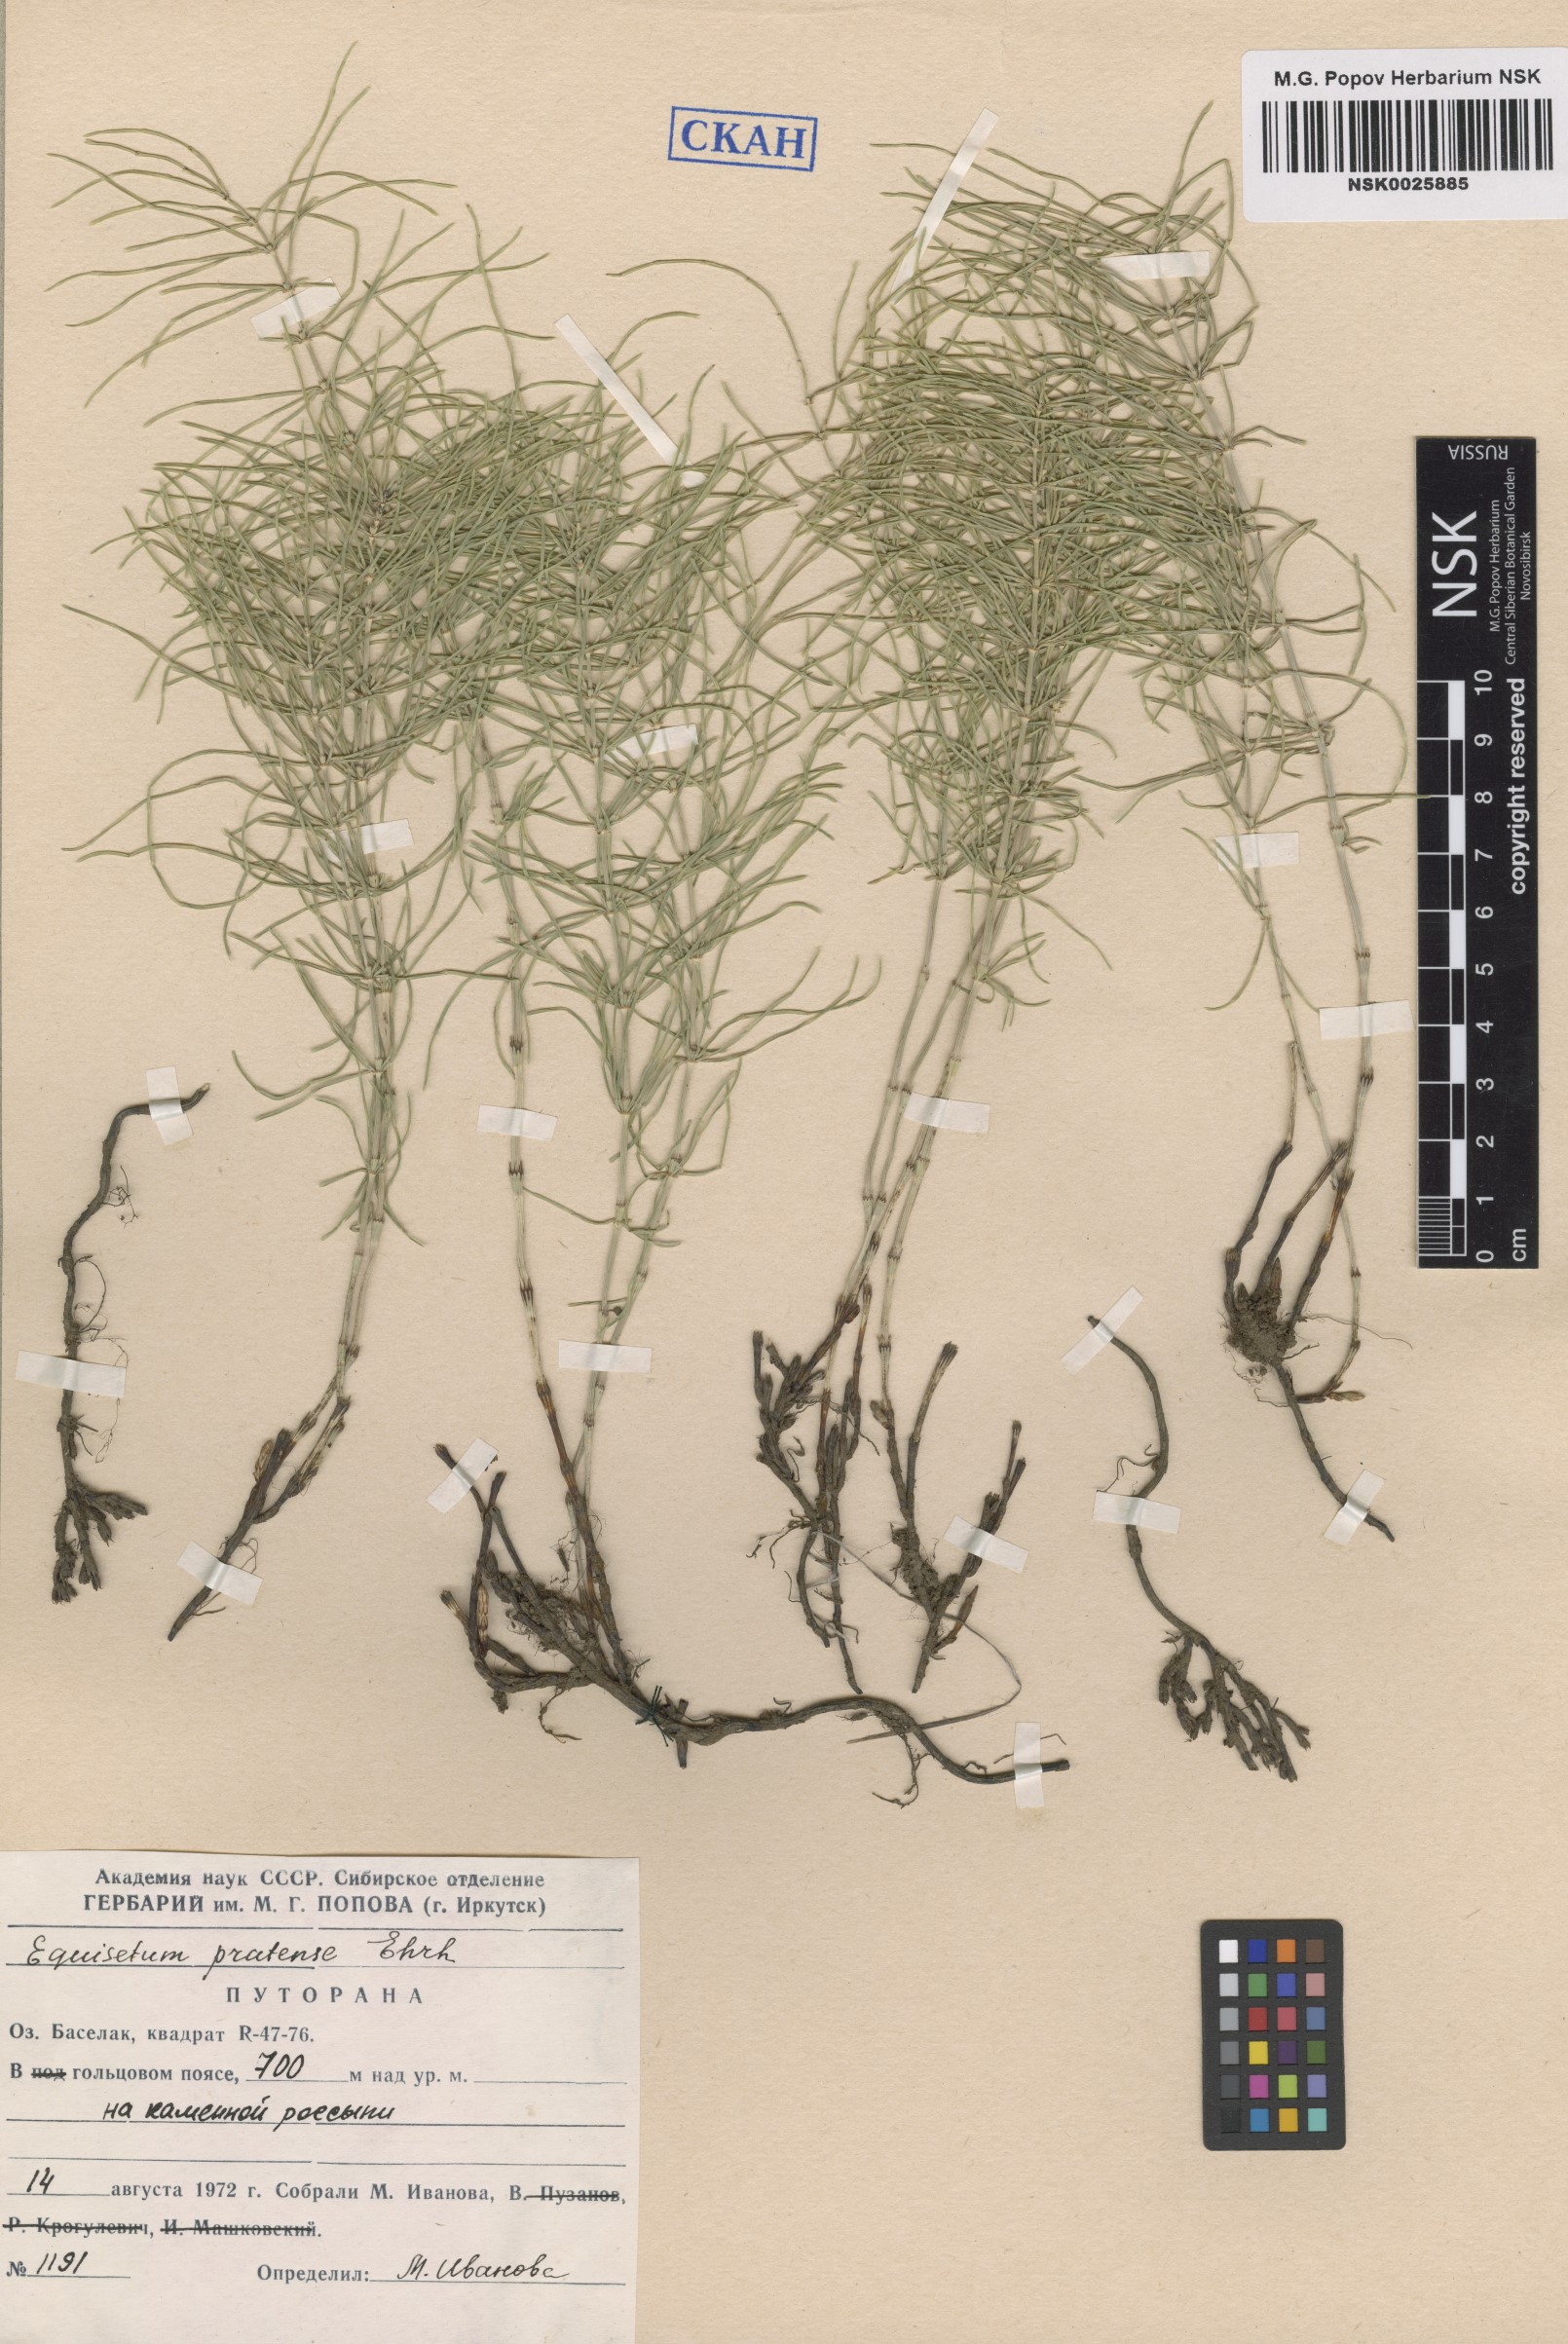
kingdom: Plantae
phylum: Tracheophyta
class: Polypodiopsida
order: Equisetales
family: Equisetaceae
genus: Equisetum
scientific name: Equisetum pratense
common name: Meadow horsetail
